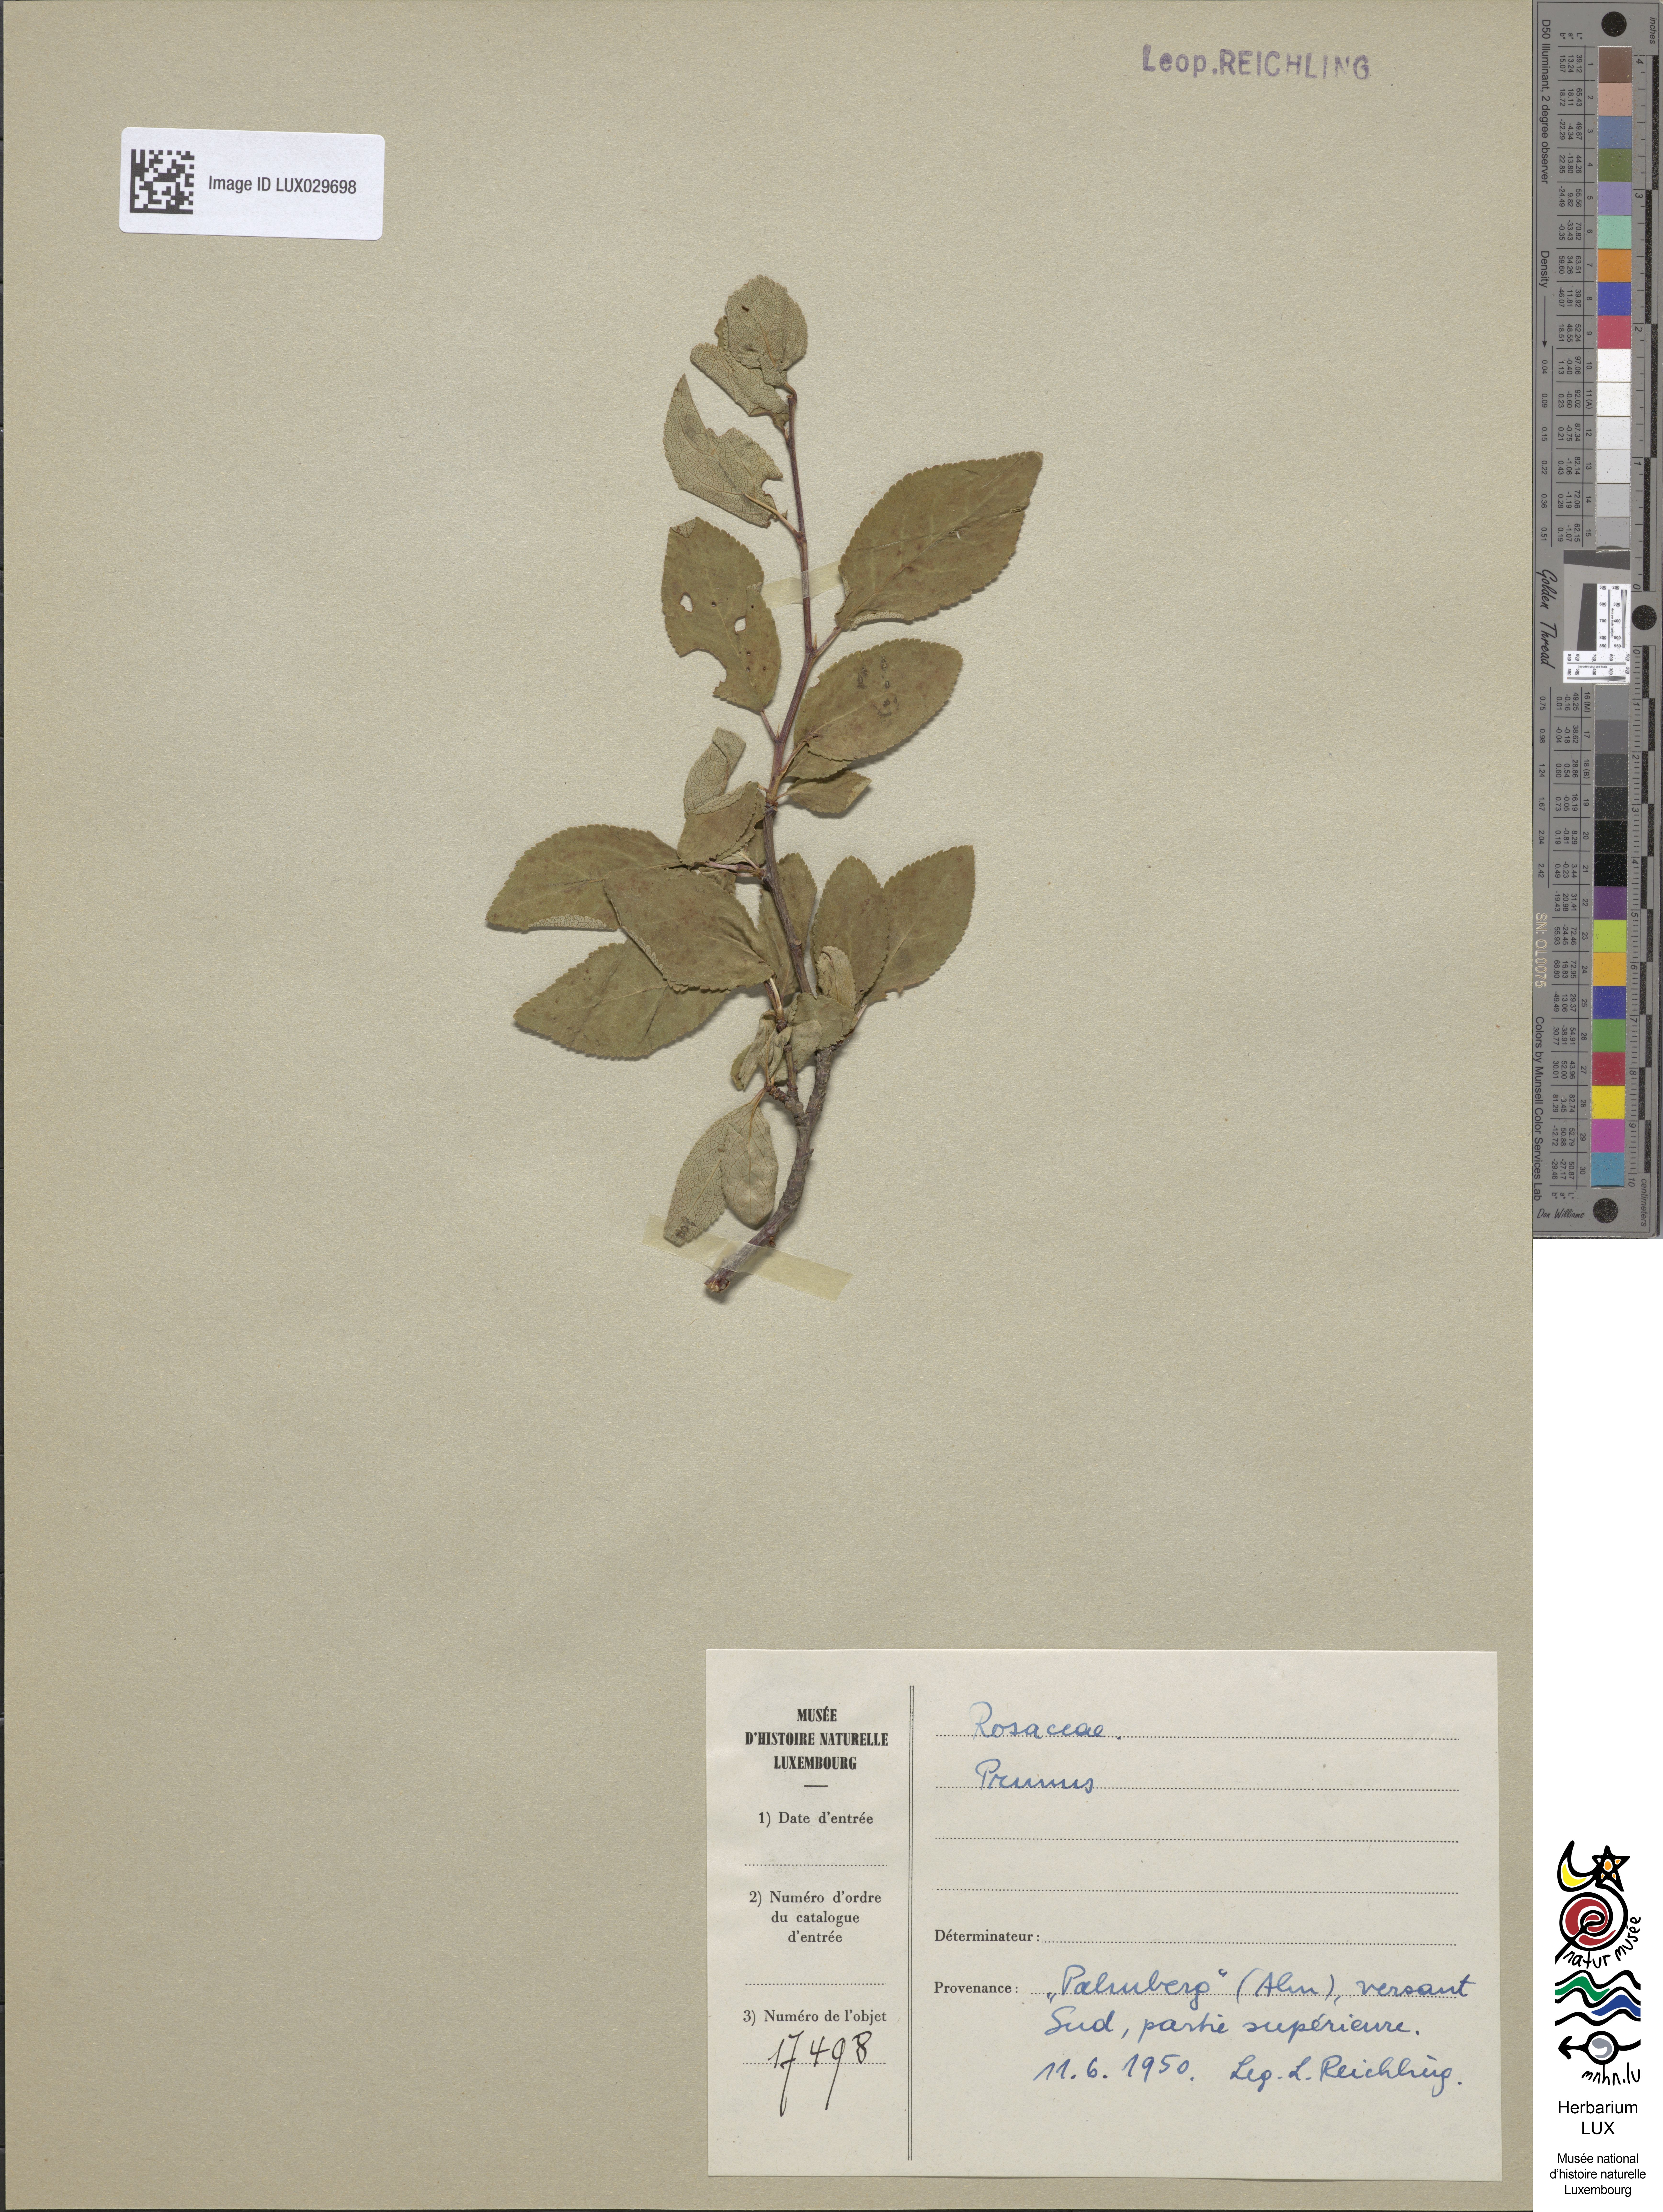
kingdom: Plantae
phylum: Tracheophyta
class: Magnoliopsida
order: Rosales
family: Rosaceae
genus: Prunus
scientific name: Prunus
